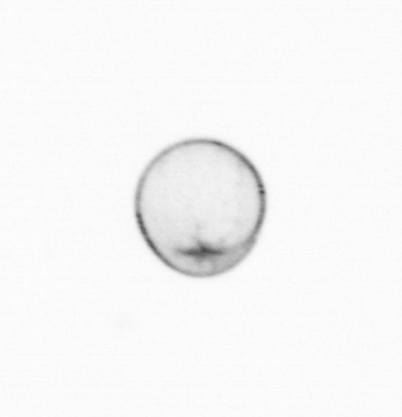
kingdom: Chromista
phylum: Myzozoa
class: Dinophyceae
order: Noctilucales
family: Noctilucaceae
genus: Noctiluca
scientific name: Noctiluca scintillans
